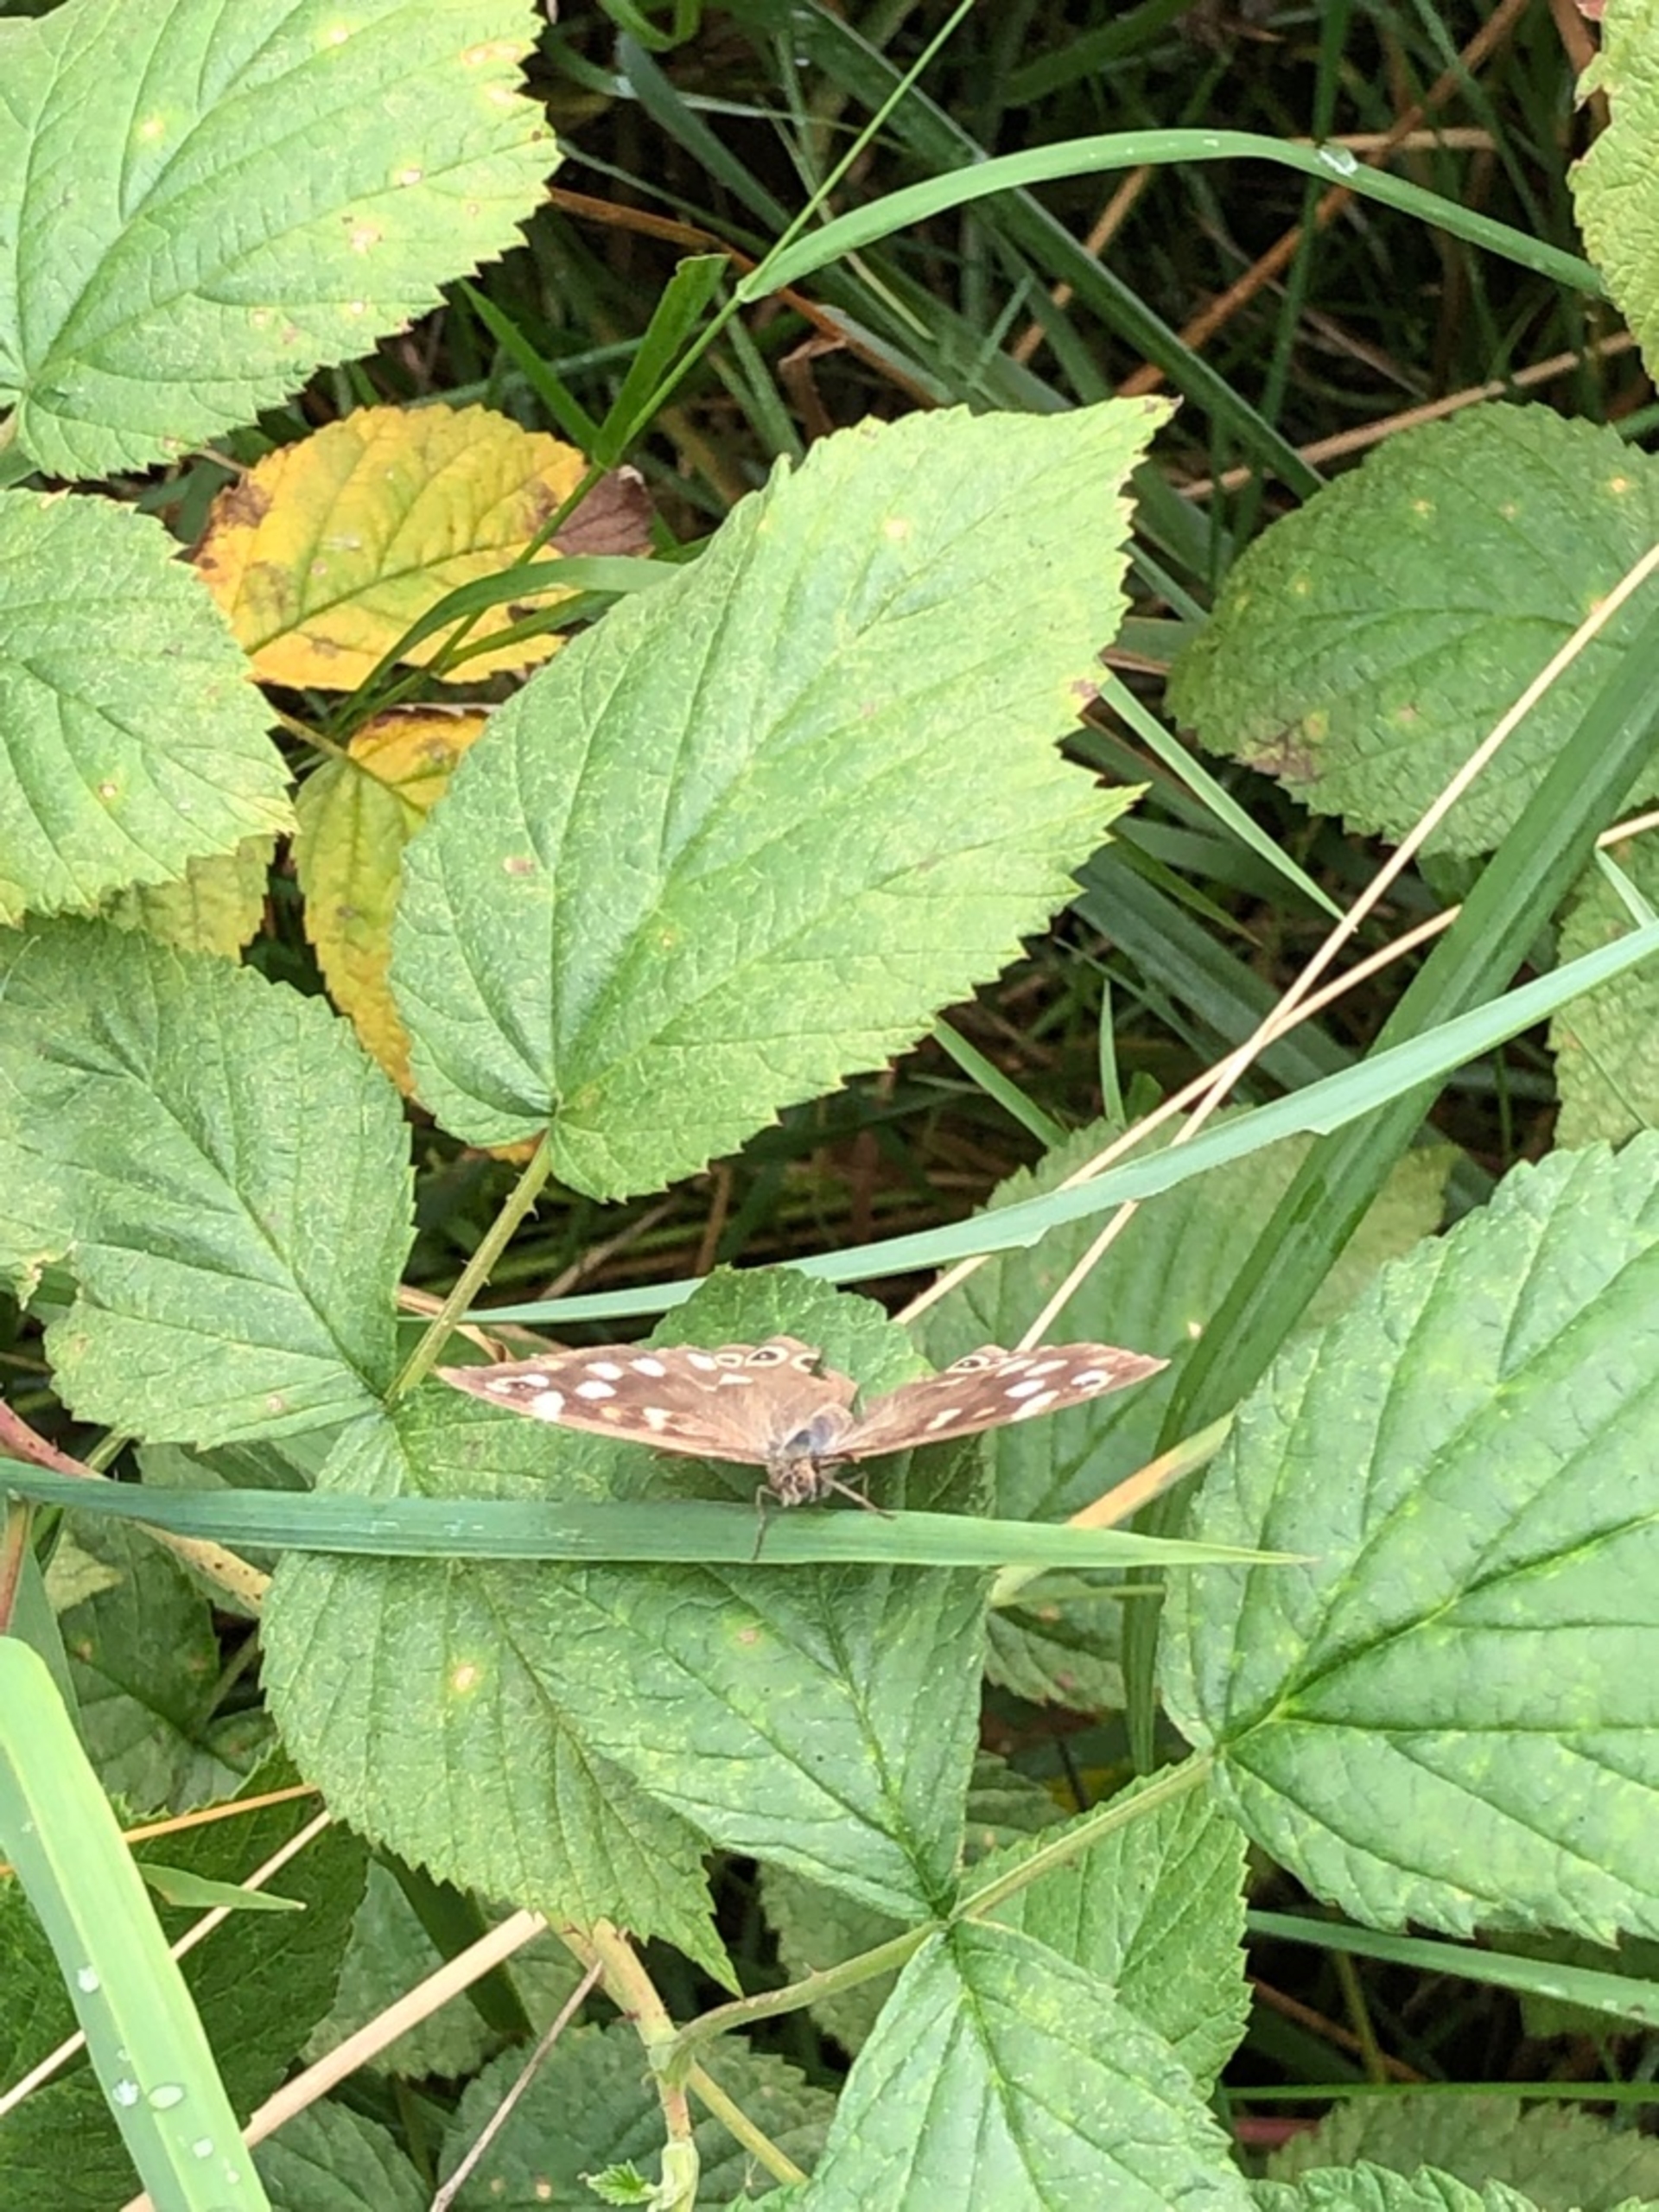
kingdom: Animalia
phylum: Arthropoda
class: Insecta
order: Lepidoptera
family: Nymphalidae
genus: Pararge
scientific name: Pararge aegeria
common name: Skovrandøje
